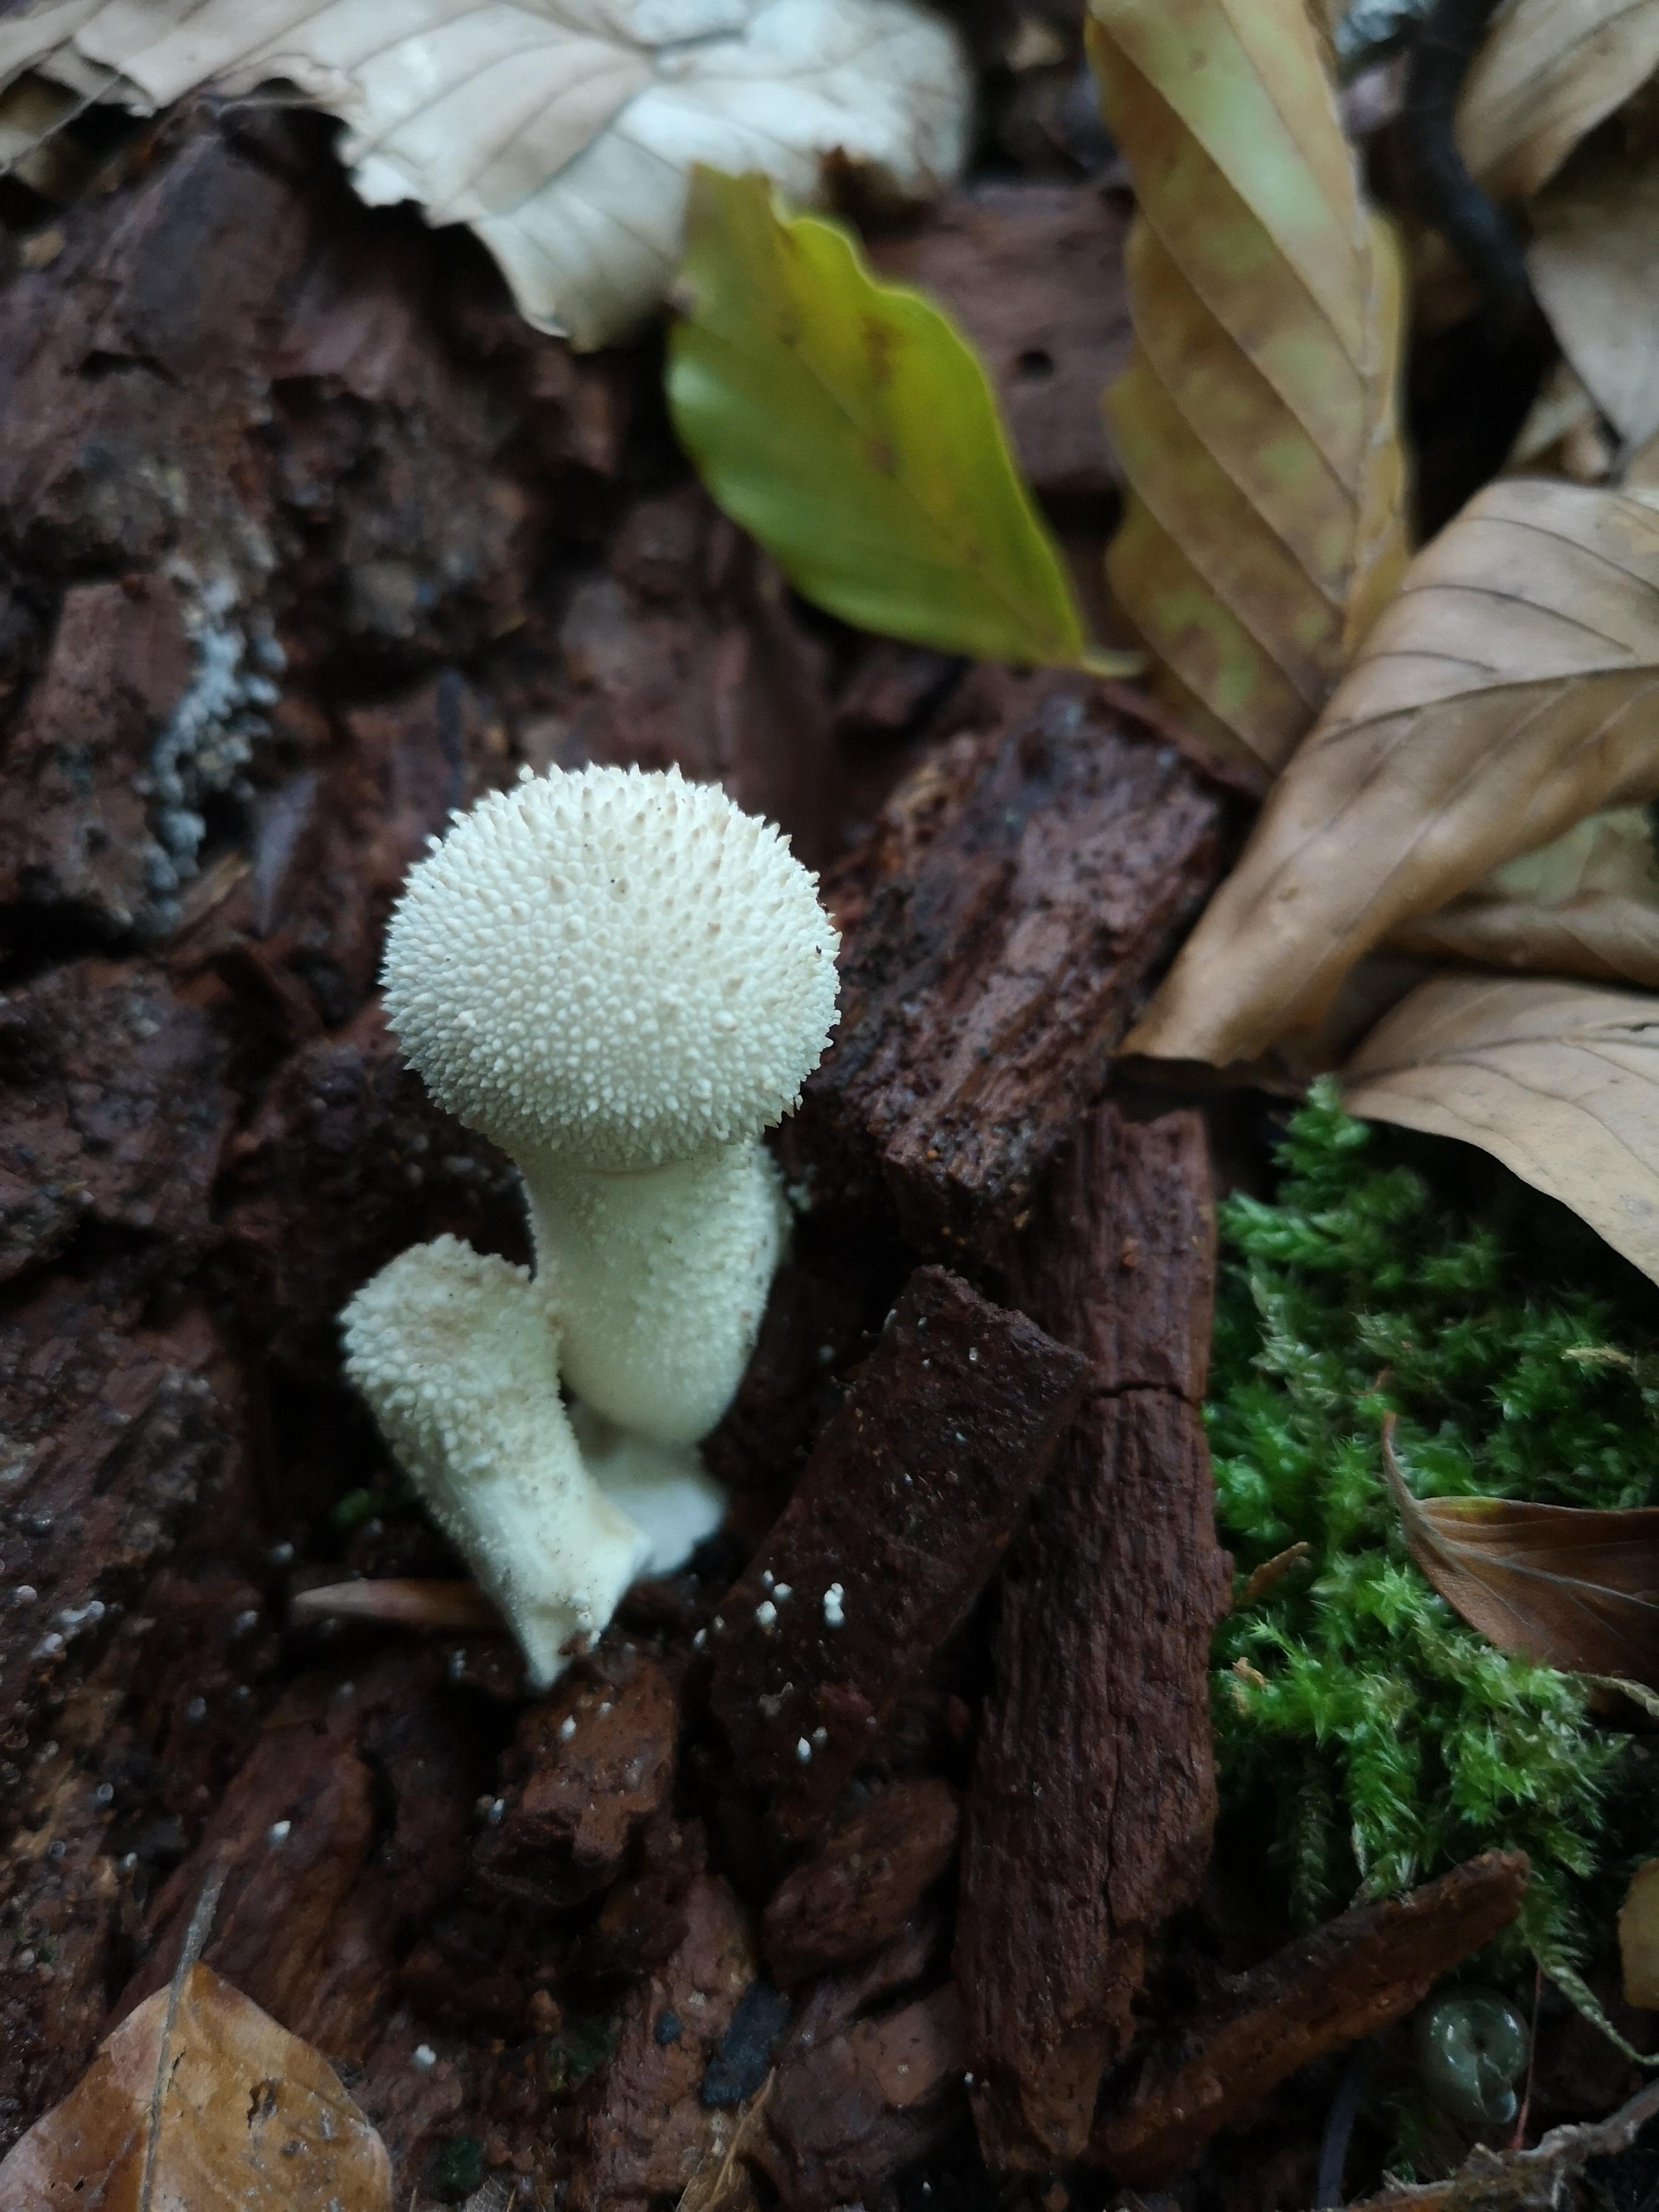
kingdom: Fungi
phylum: Basidiomycota
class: Agaricomycetes
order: Agaricales
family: Lycoperdaceae
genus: Lycoperdon
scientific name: Lycoperdon perlatum
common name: krystal-støvbold
